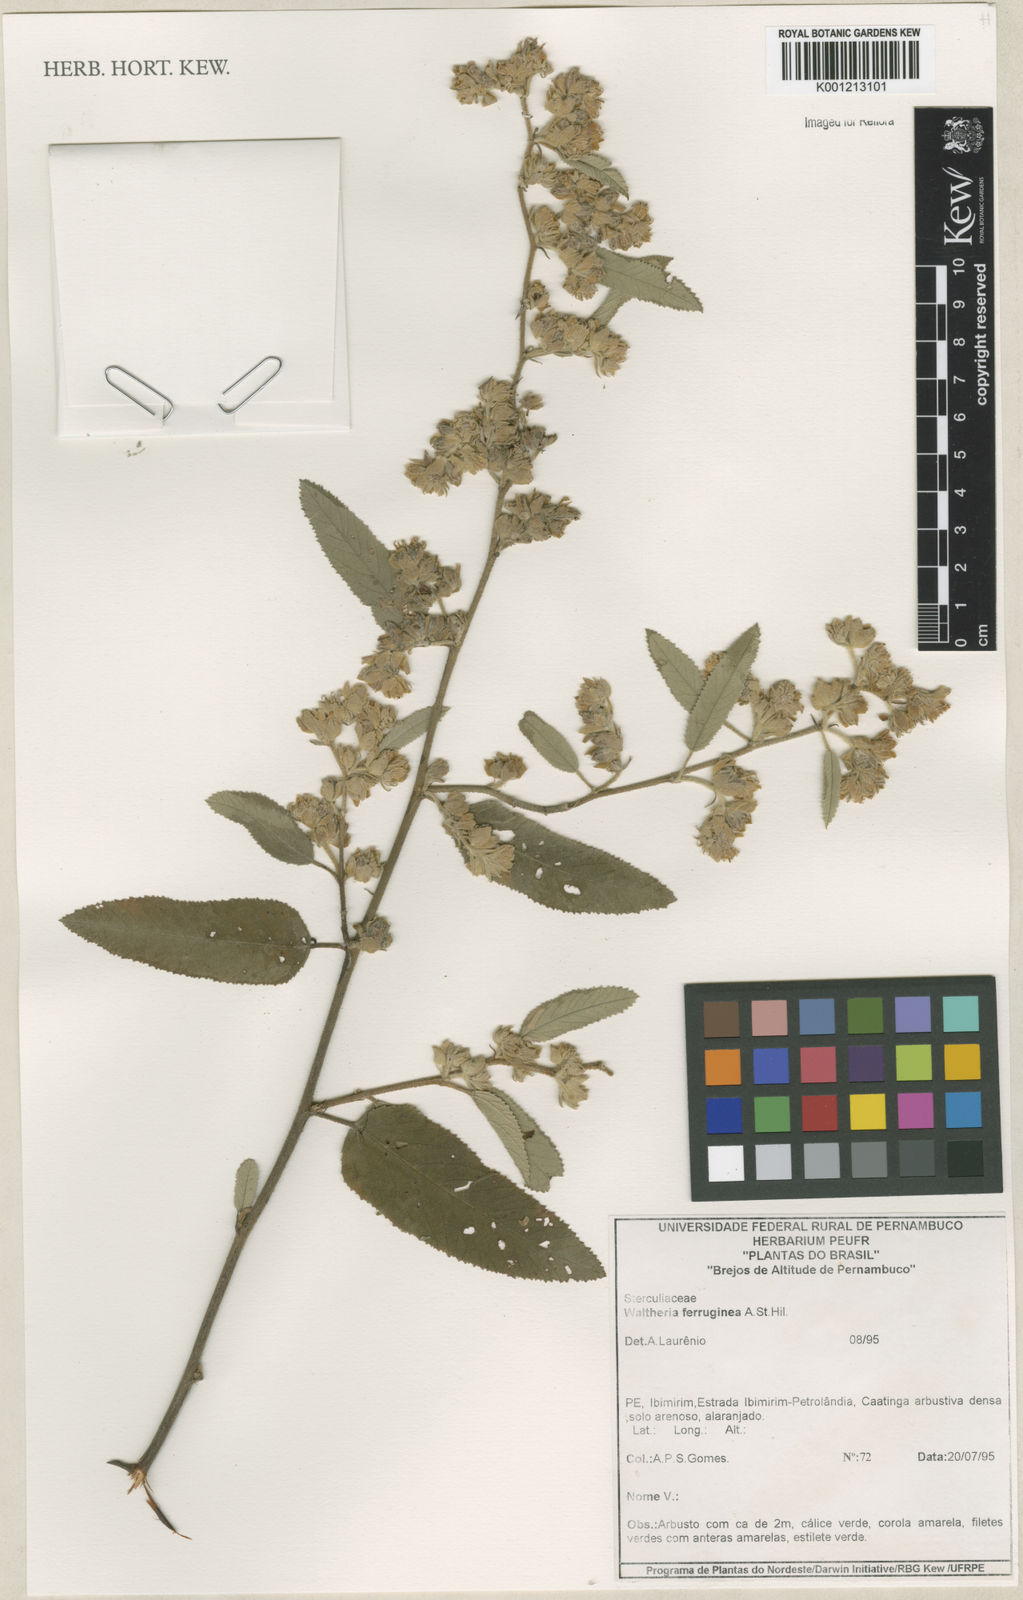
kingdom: Plantae
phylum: Tracheophyta
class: Magnoliopsida
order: Malvales
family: Malvaceae
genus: Waltheria
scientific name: Waltheria ferruginea
